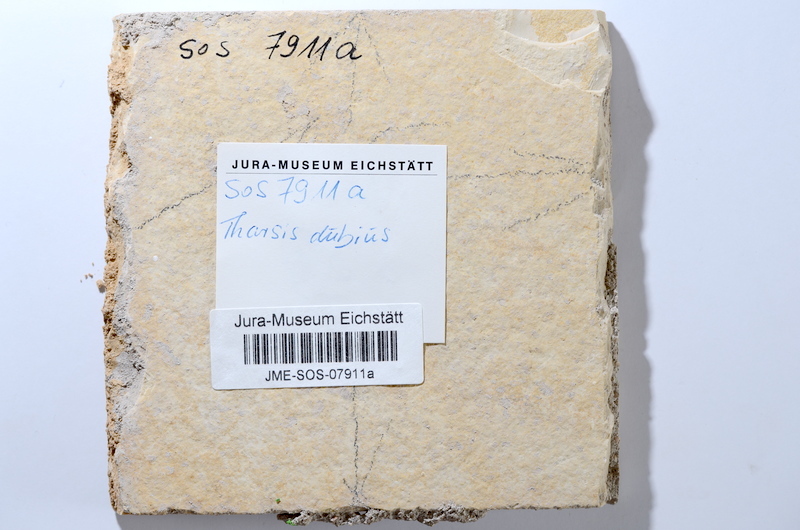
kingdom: Animalia
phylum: Chordata
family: Ascalaboidae
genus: Tharsis
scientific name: Tharsis dubius
